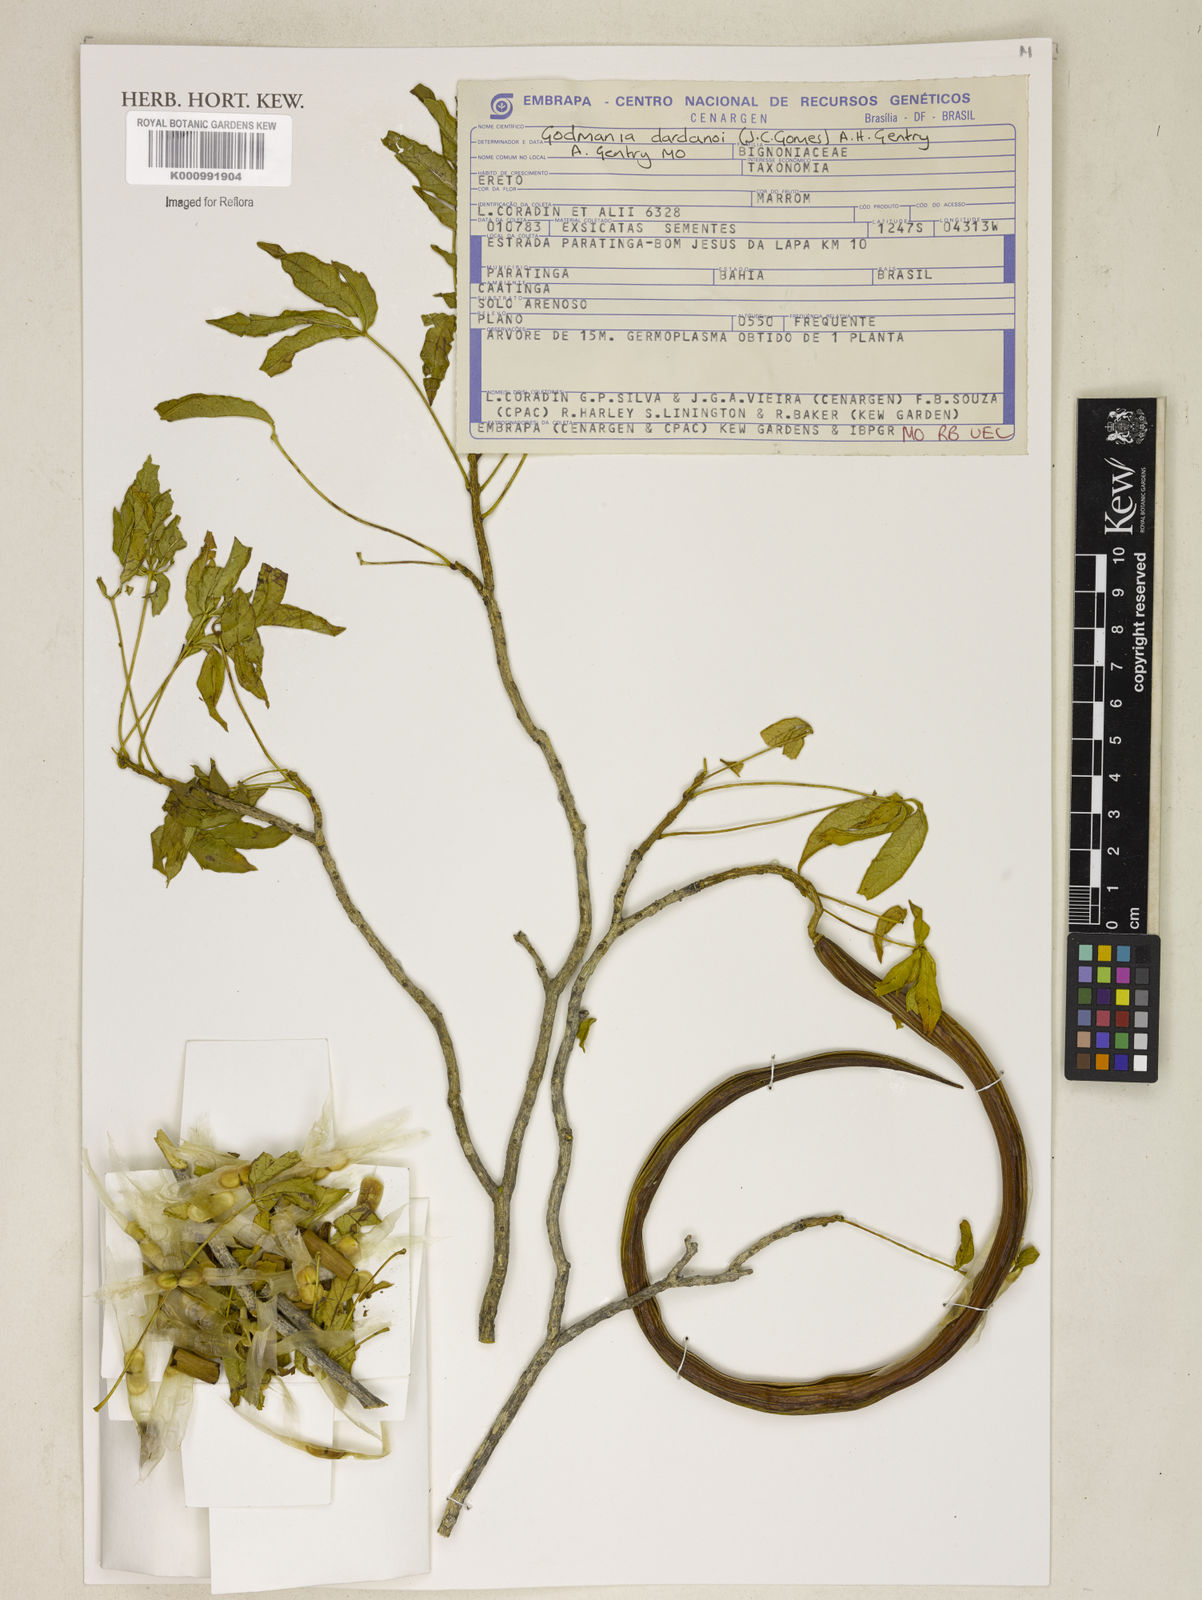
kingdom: Plantae
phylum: Tracheophyta
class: Magnoliopsida
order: Lamiales
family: Bignoniaceae
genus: Godmania
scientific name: Godmania dardanoi
